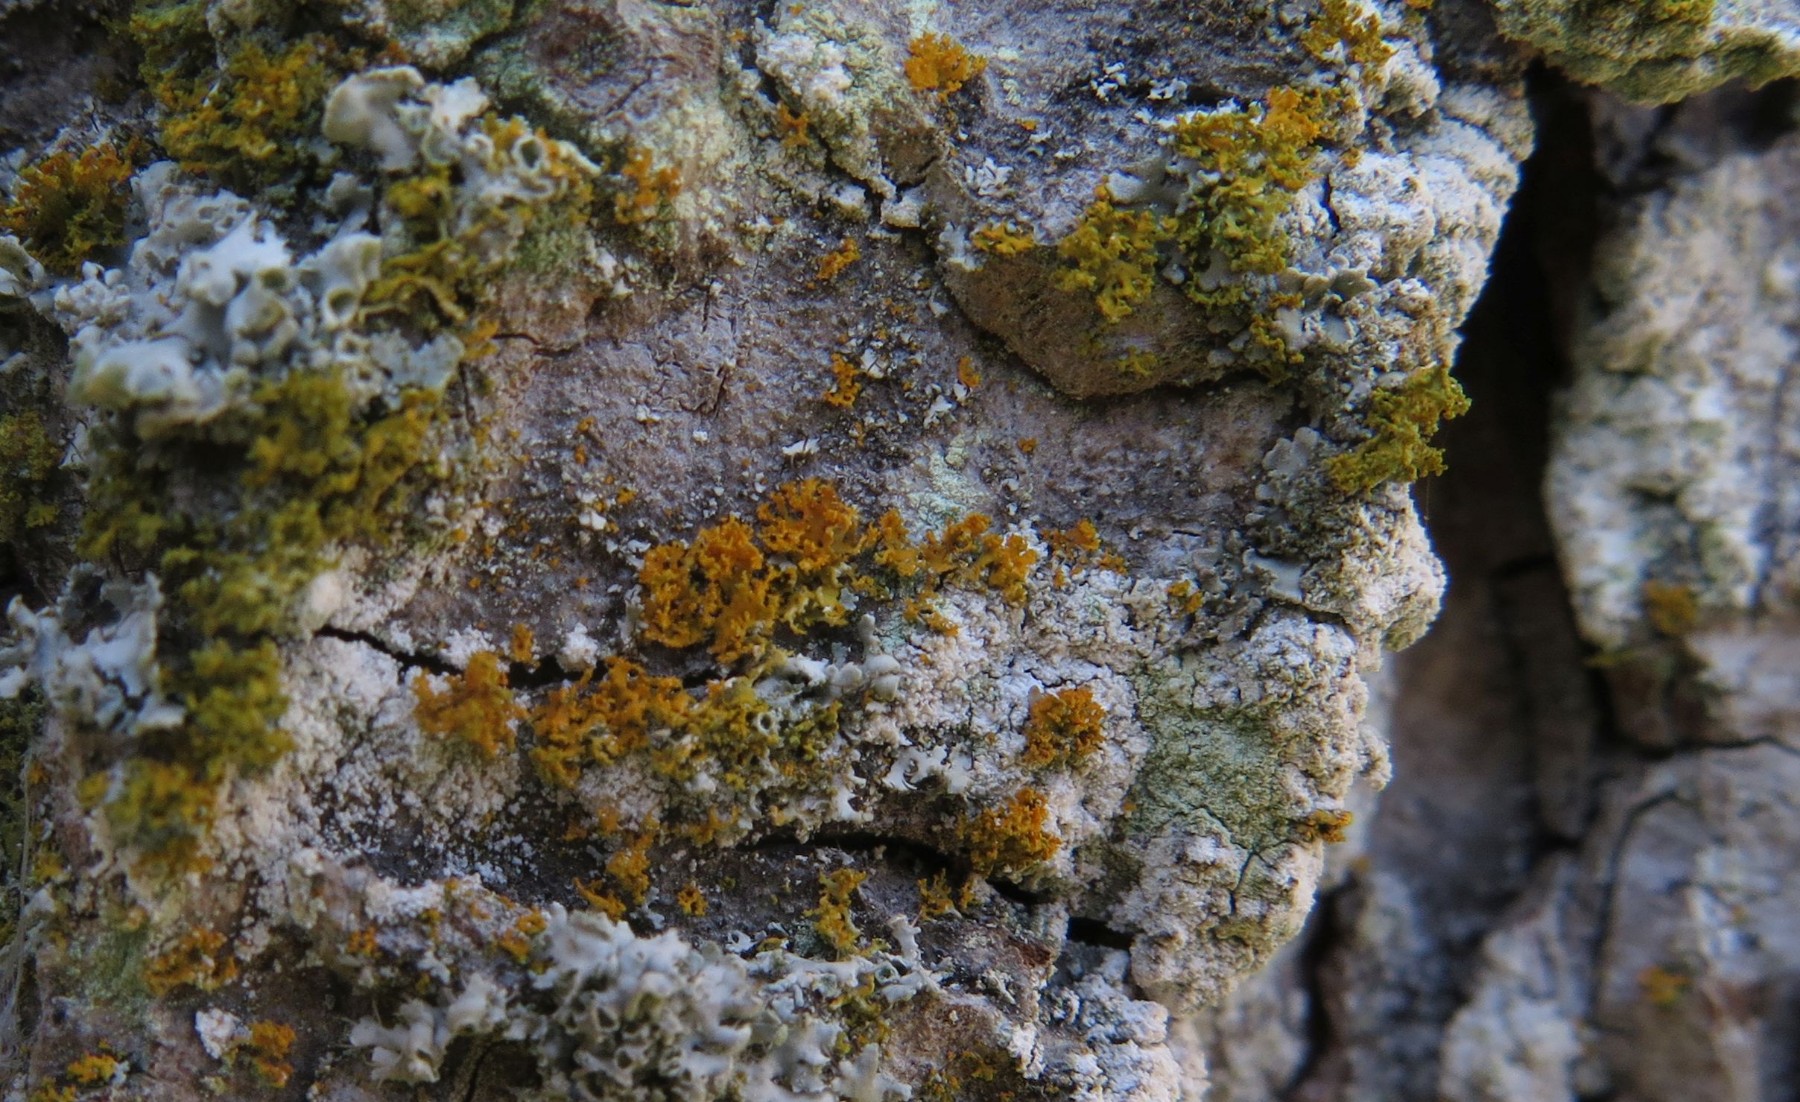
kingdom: Fungi
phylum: Ascomycota
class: Lecanoromycetes
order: Teloschistales
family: Teloschistaceae
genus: Polycauliona
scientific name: Polycauliona candelaria
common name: tue-orangelav
